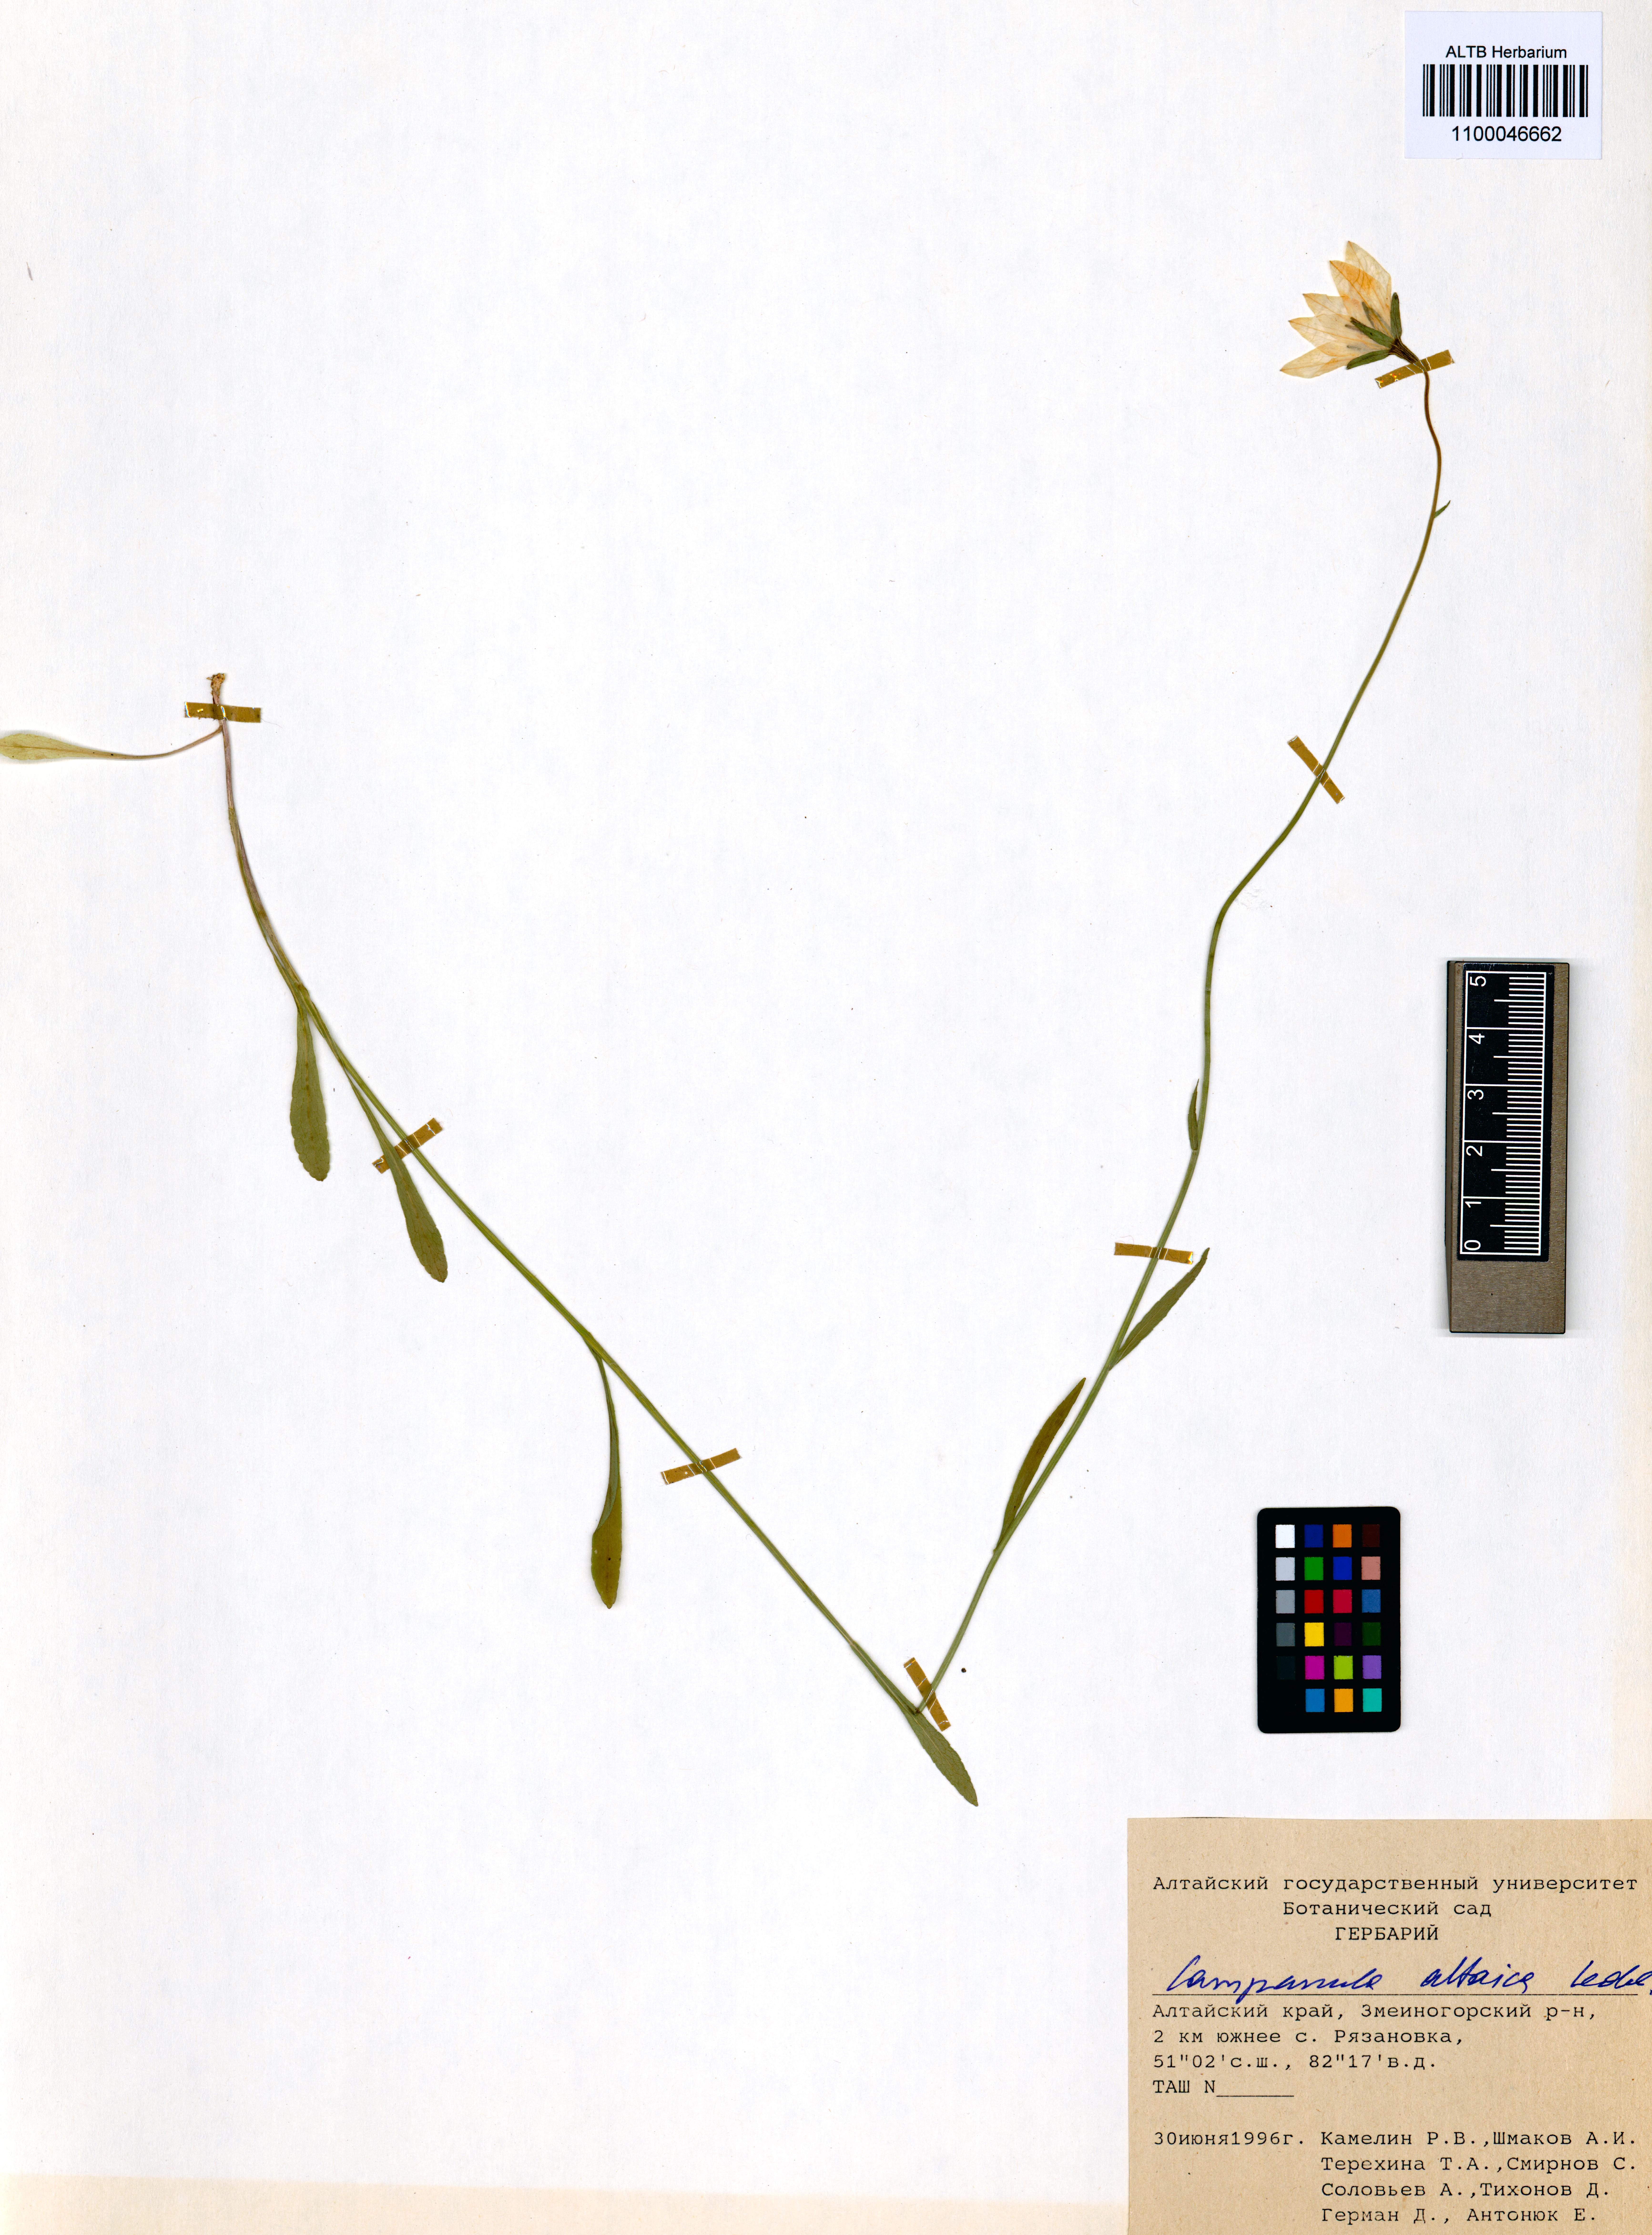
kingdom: Plantae
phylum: Tracheophyta
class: Magnoliopsida
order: Asterales
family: Campanulaceae
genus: Campanula
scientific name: Campanula stevenii
